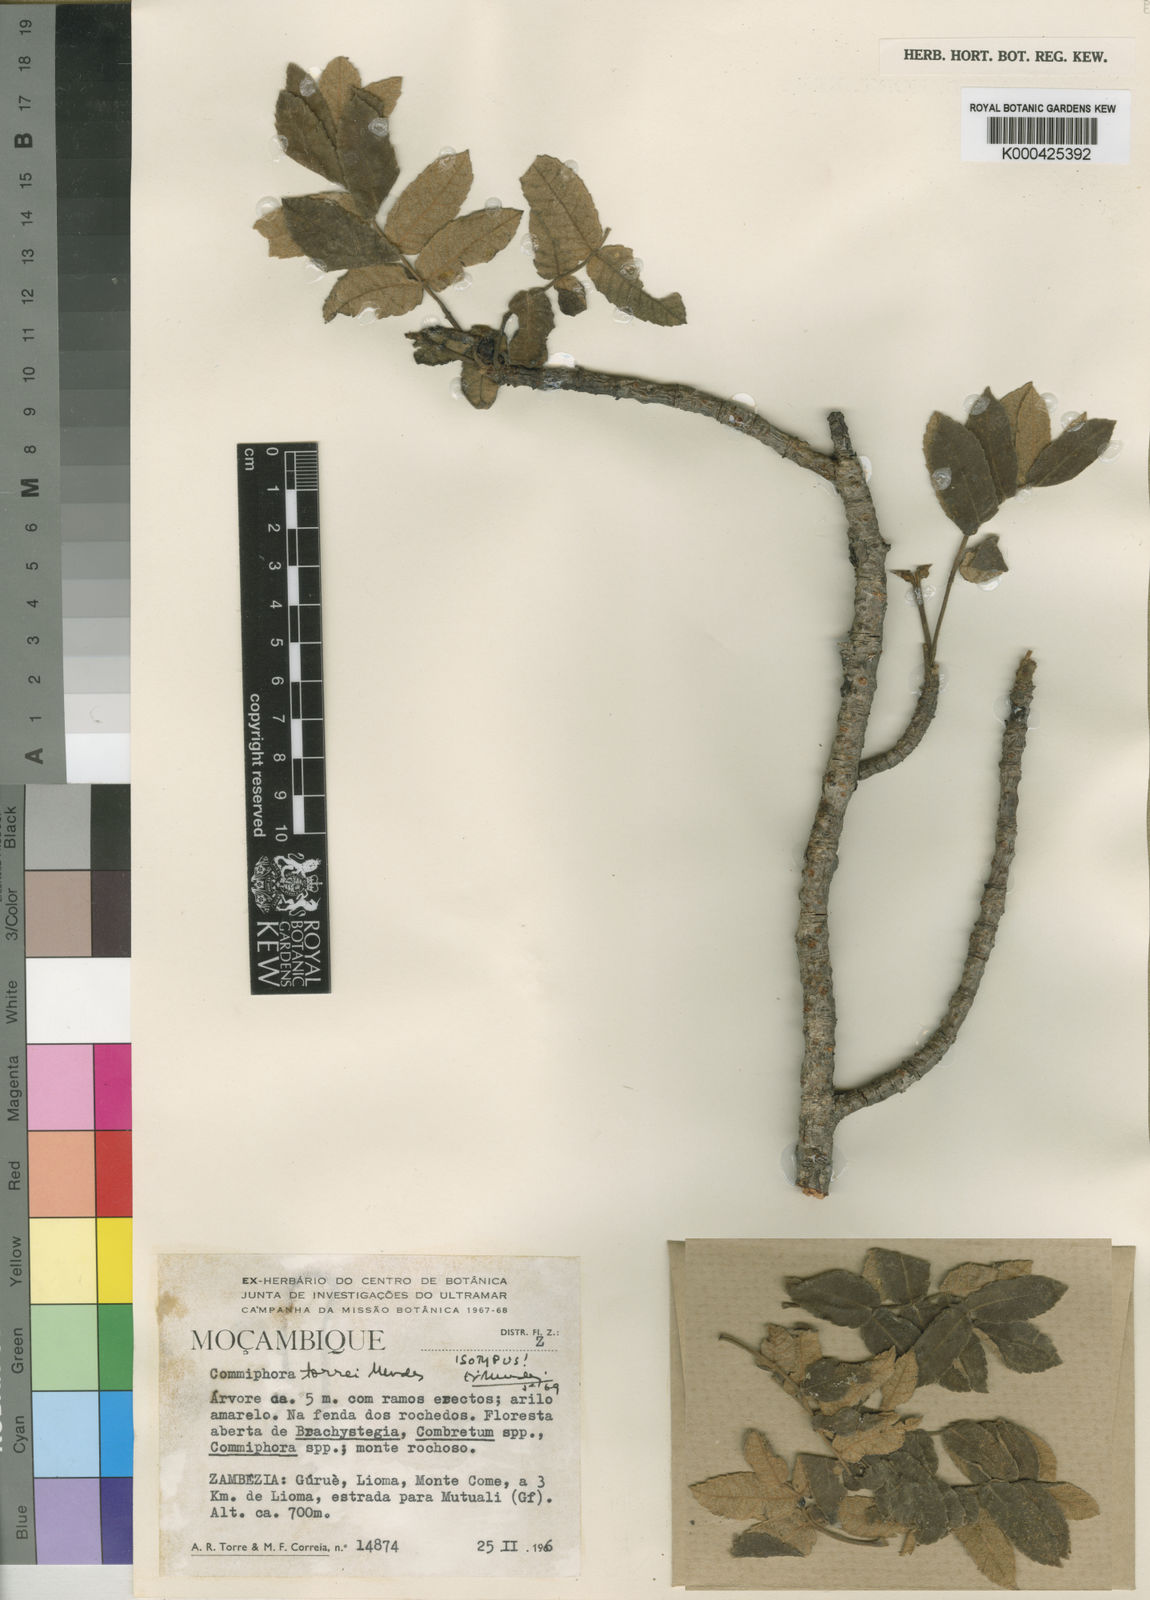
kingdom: Plantae
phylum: Tracheophyta
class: Magnoliopsida
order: Sapindales
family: Burseraceae
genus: Commiphora
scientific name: Commiphora fulvotomentosa
